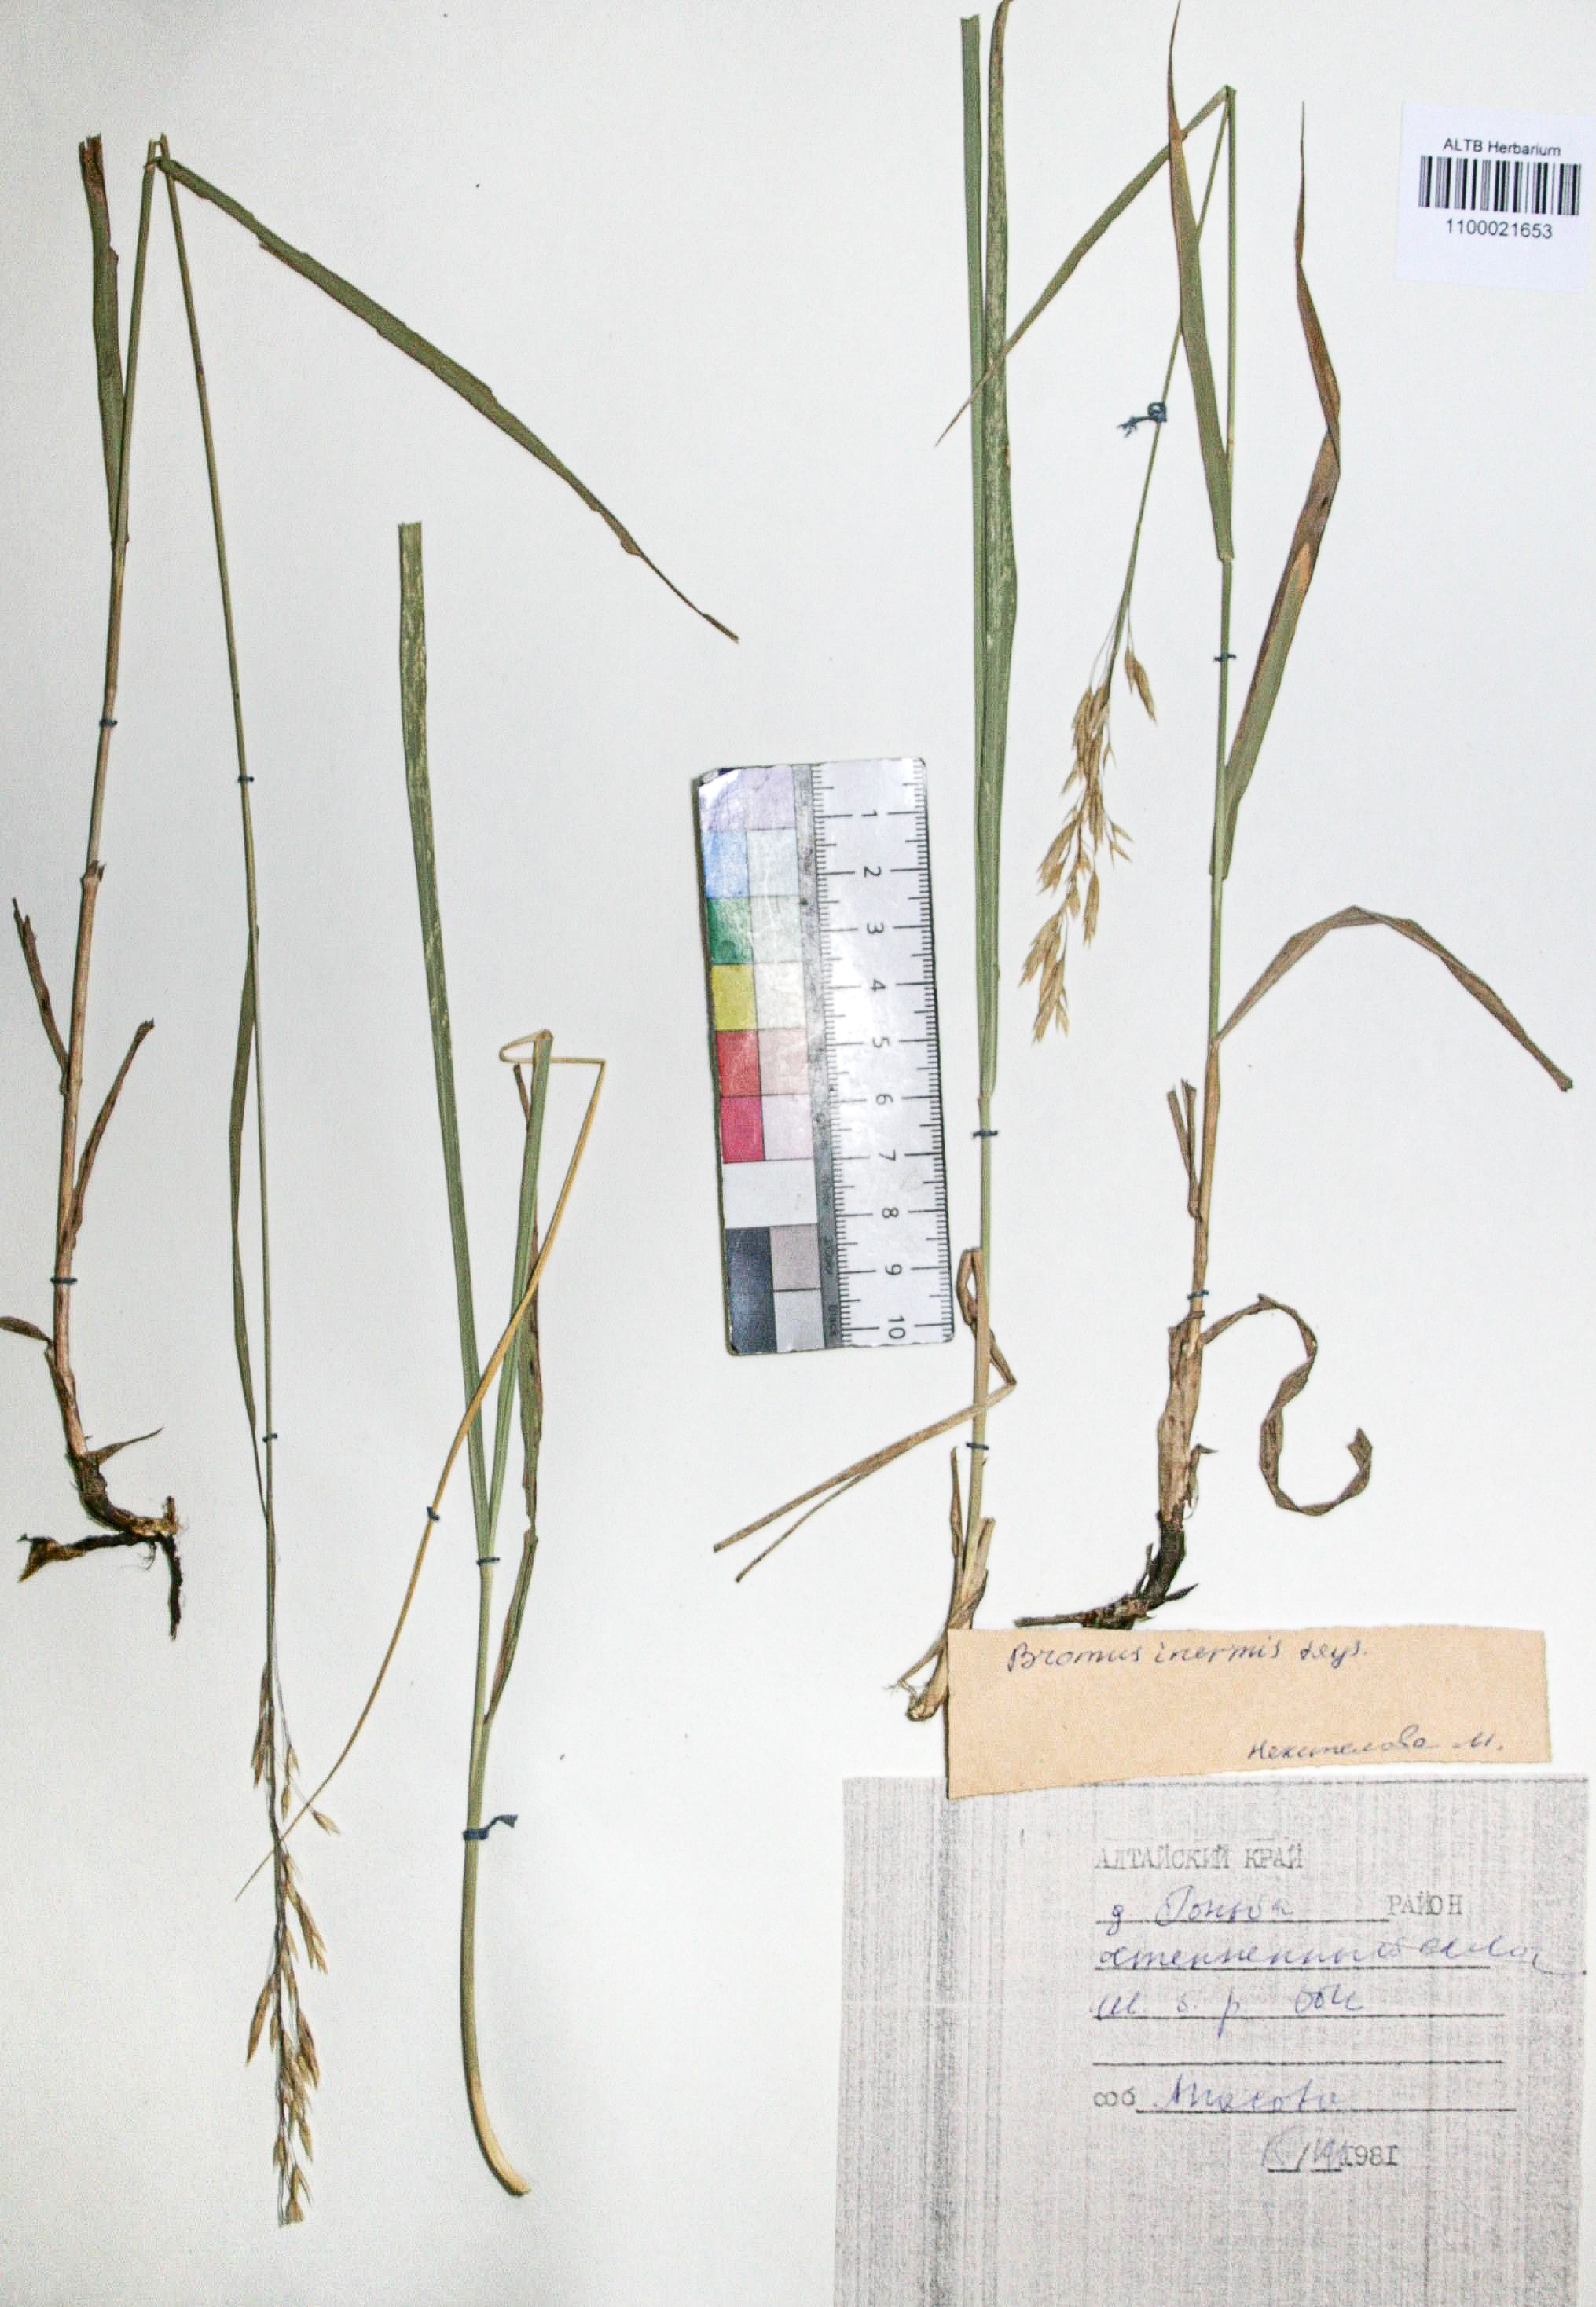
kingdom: Plantae
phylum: Tracheophyta
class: Liliopsida
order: Poales
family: Poaceae
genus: Bromus
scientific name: Bromus inermis
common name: Smooth brome
